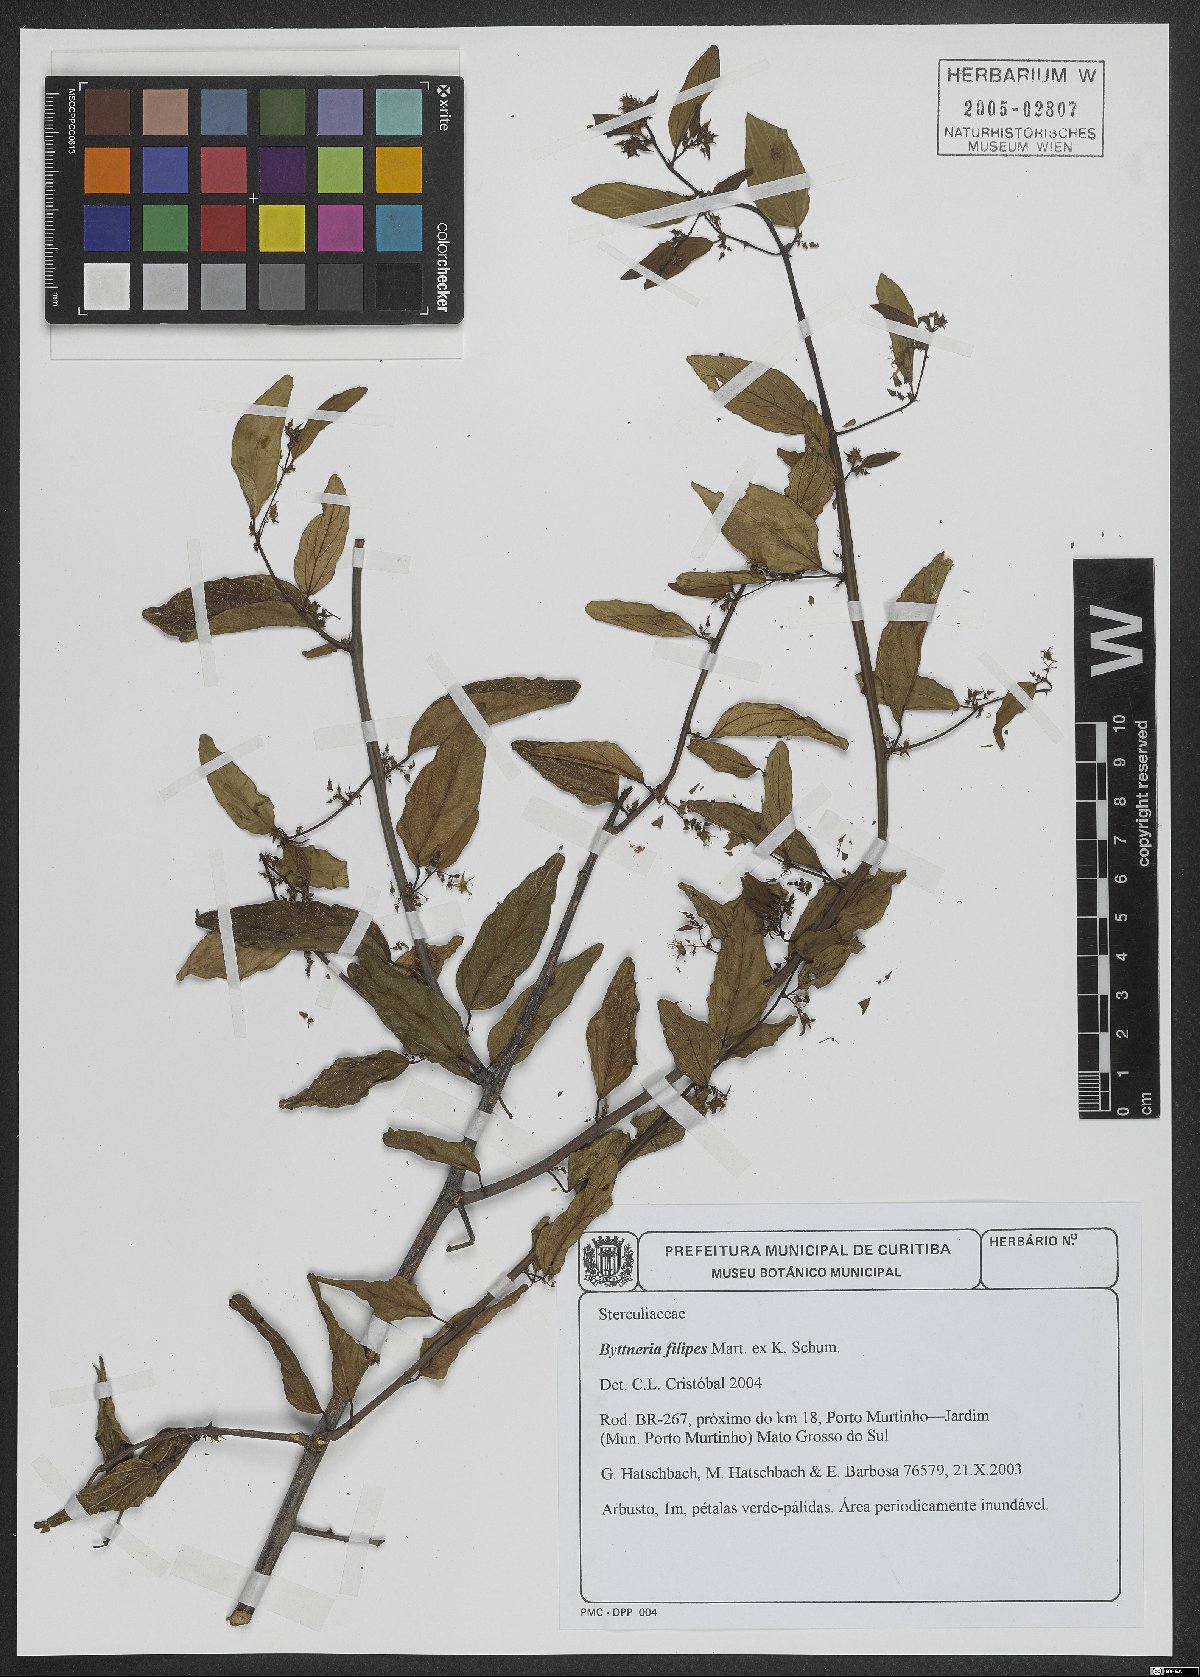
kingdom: Plantae
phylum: Tracheophyta
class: Magnoliopsida
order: Malvales
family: Malvaceae
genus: Byttneria
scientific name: Byttneria filipes
